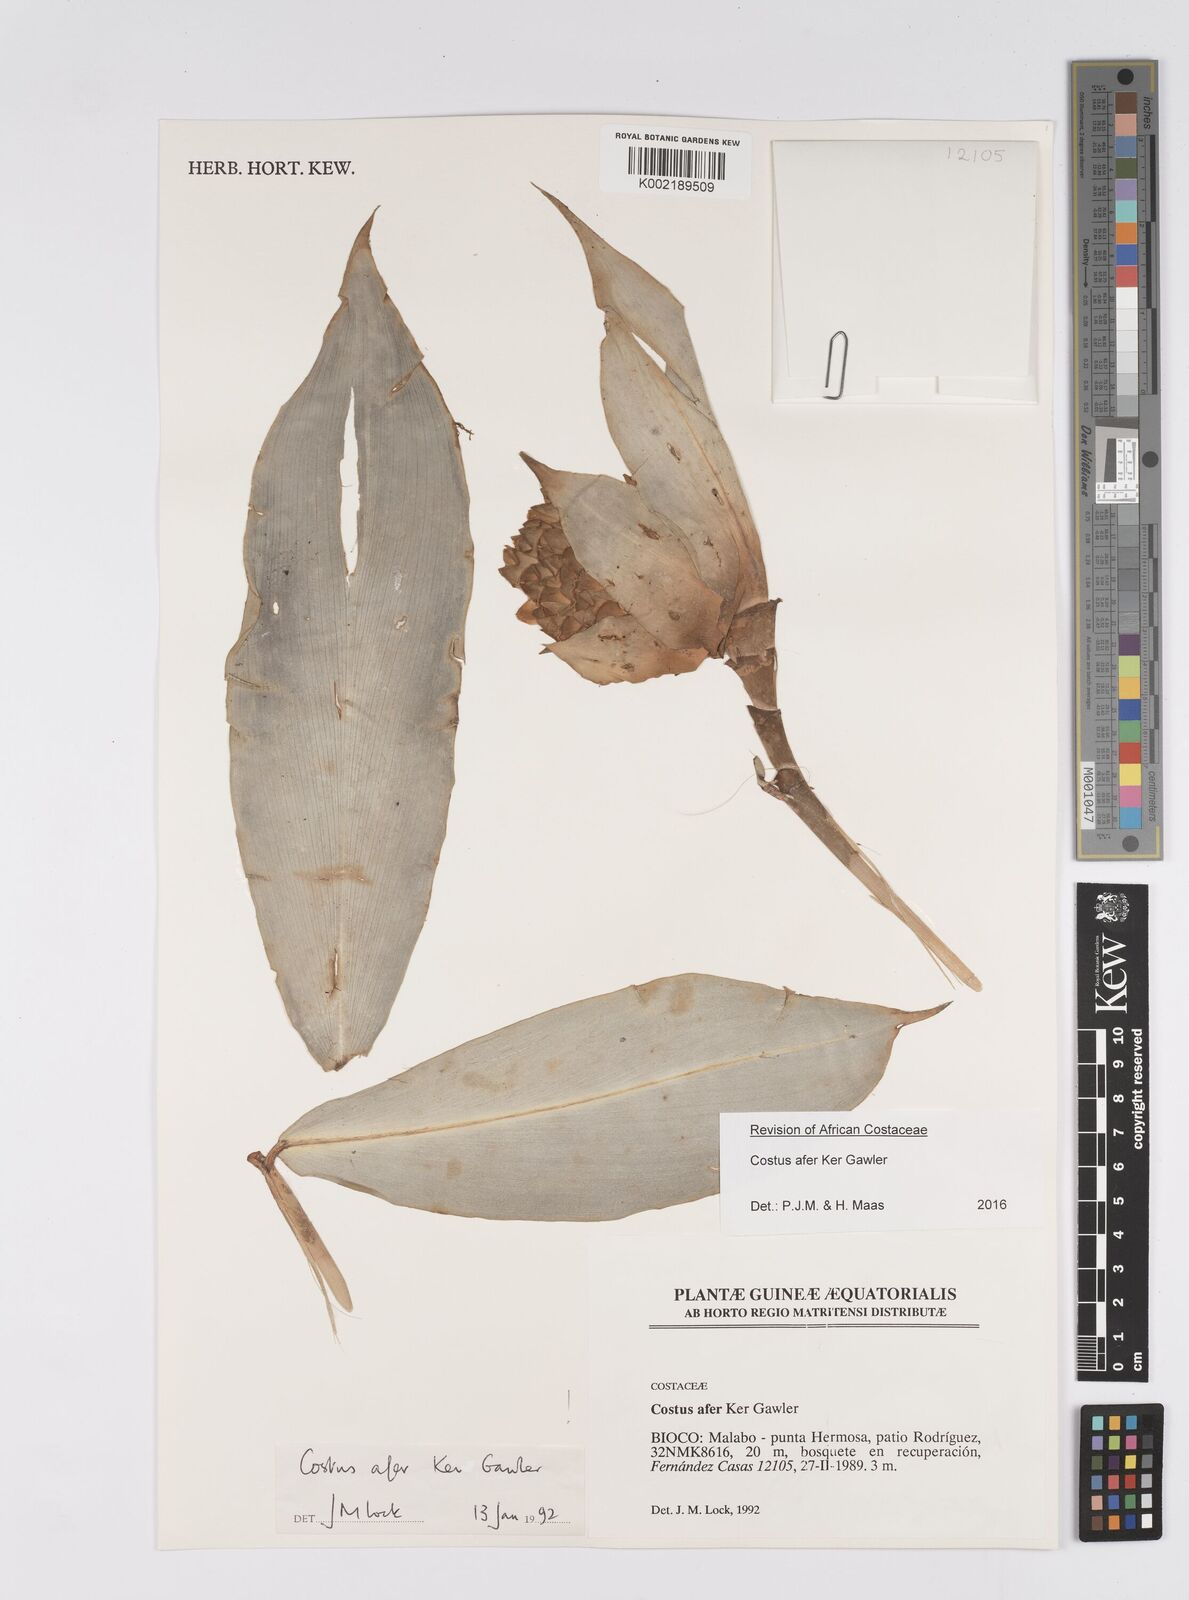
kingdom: Plantae
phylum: Tracheophyta
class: Liliopsida
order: Zingiberales
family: Costaceae
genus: Costus
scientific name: Costus afer
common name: Spiral-ginger
